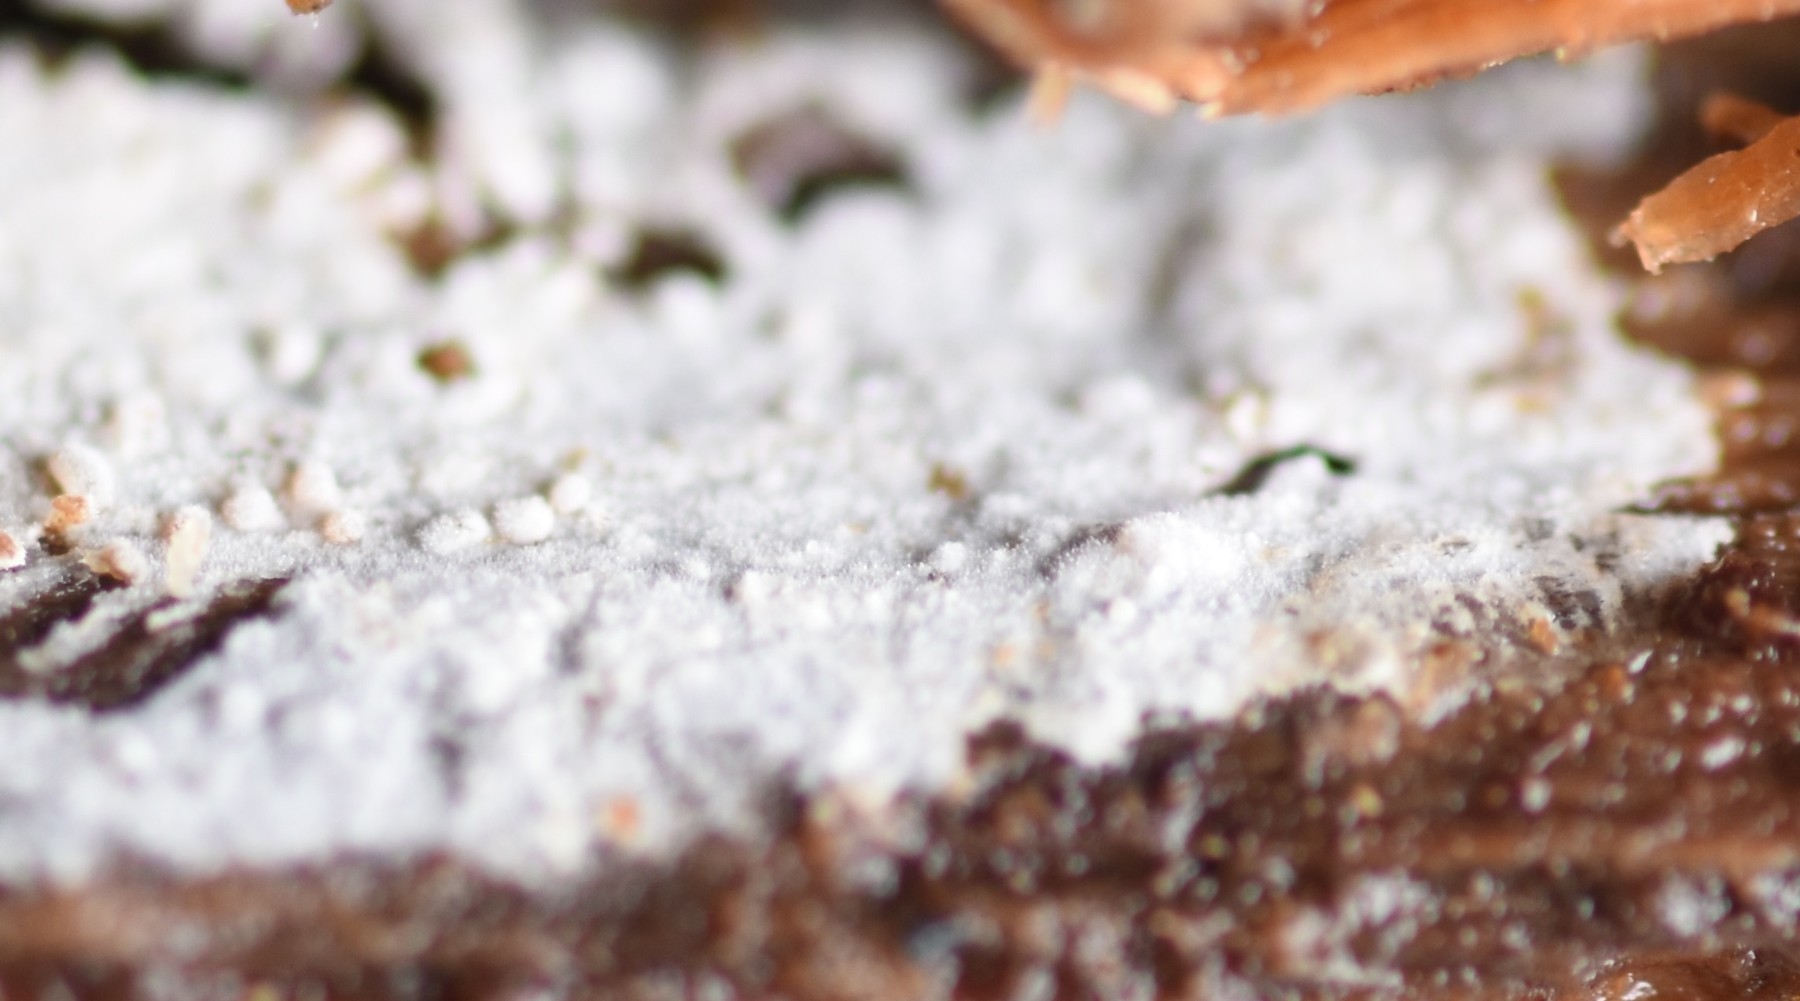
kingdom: Fungi
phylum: Basidiomycota
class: Agaricomycetes
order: Hymenochaetales
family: Hyphodontiaceae
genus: Hyphodontia
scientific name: Hyphodontia pallidula
